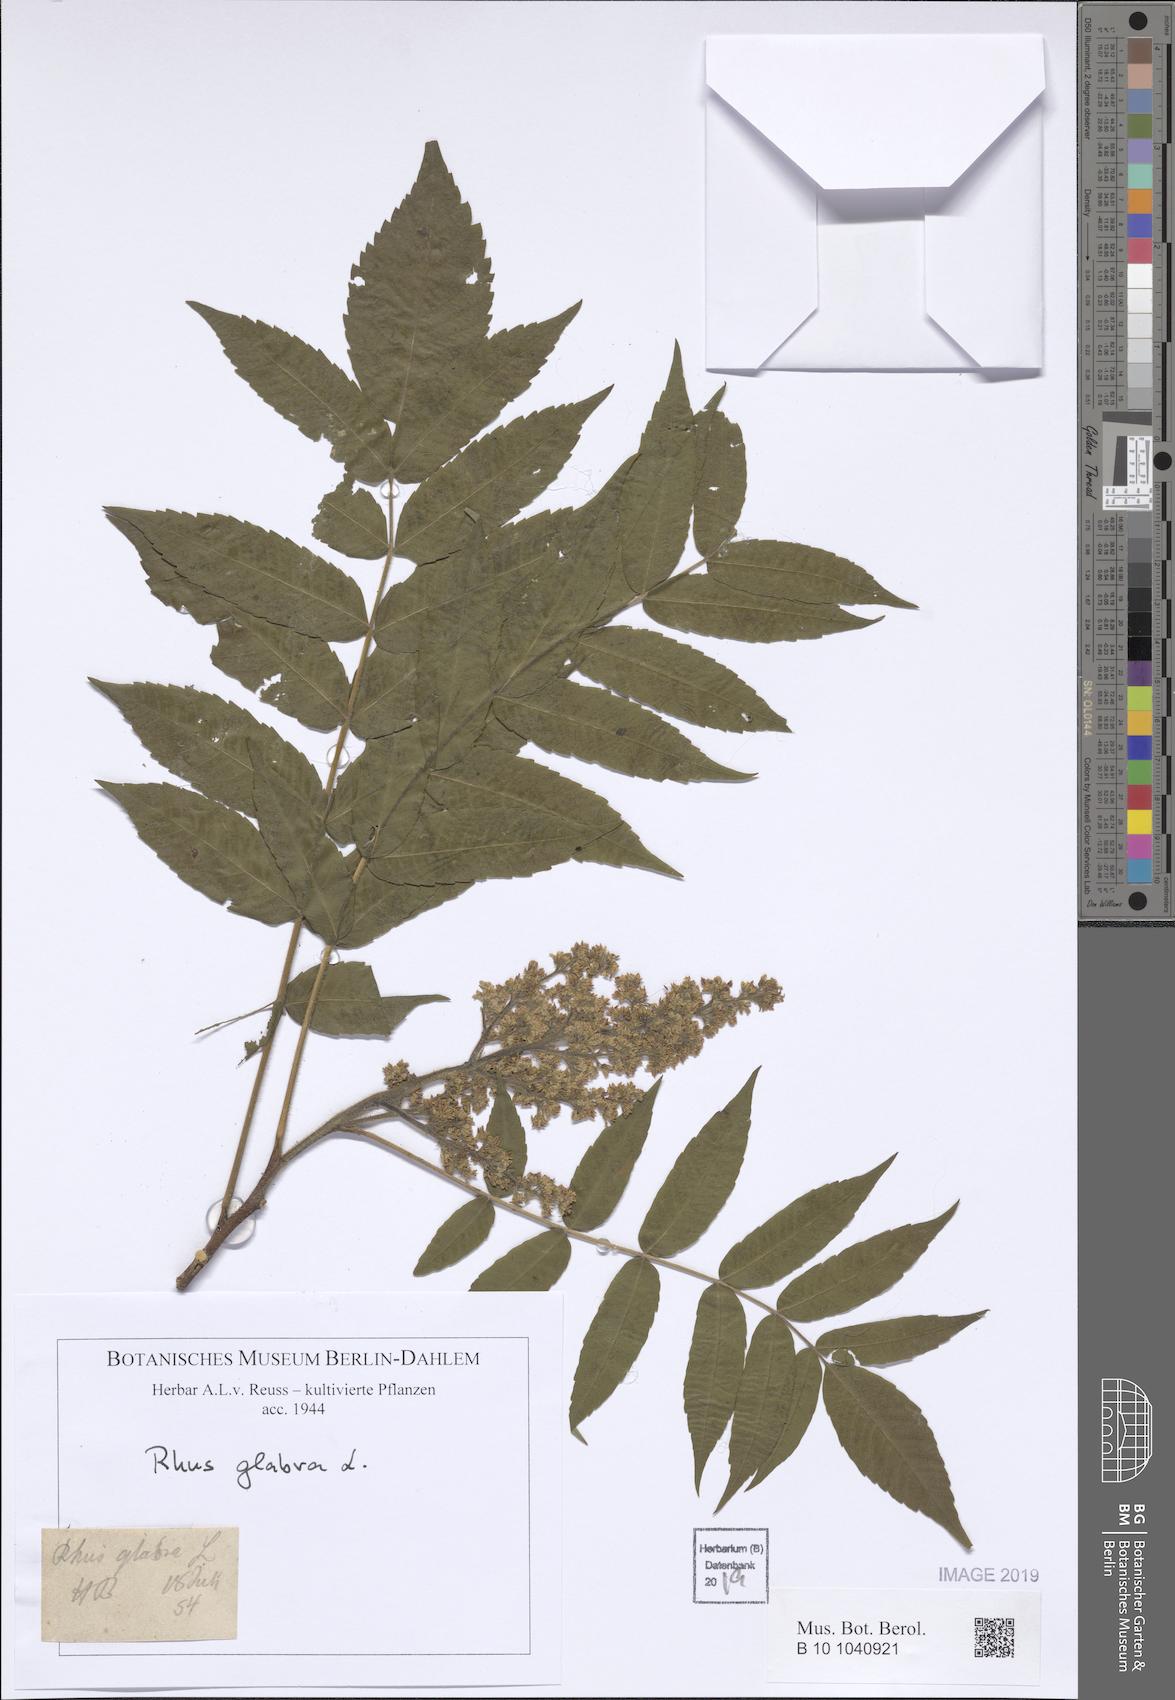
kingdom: Plantae
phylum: Tracheophyta
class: Magnoliopsida
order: Sapindales
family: Anacardiaceae
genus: Rhus
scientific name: Rhus glabra
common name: Scarlet sumac
